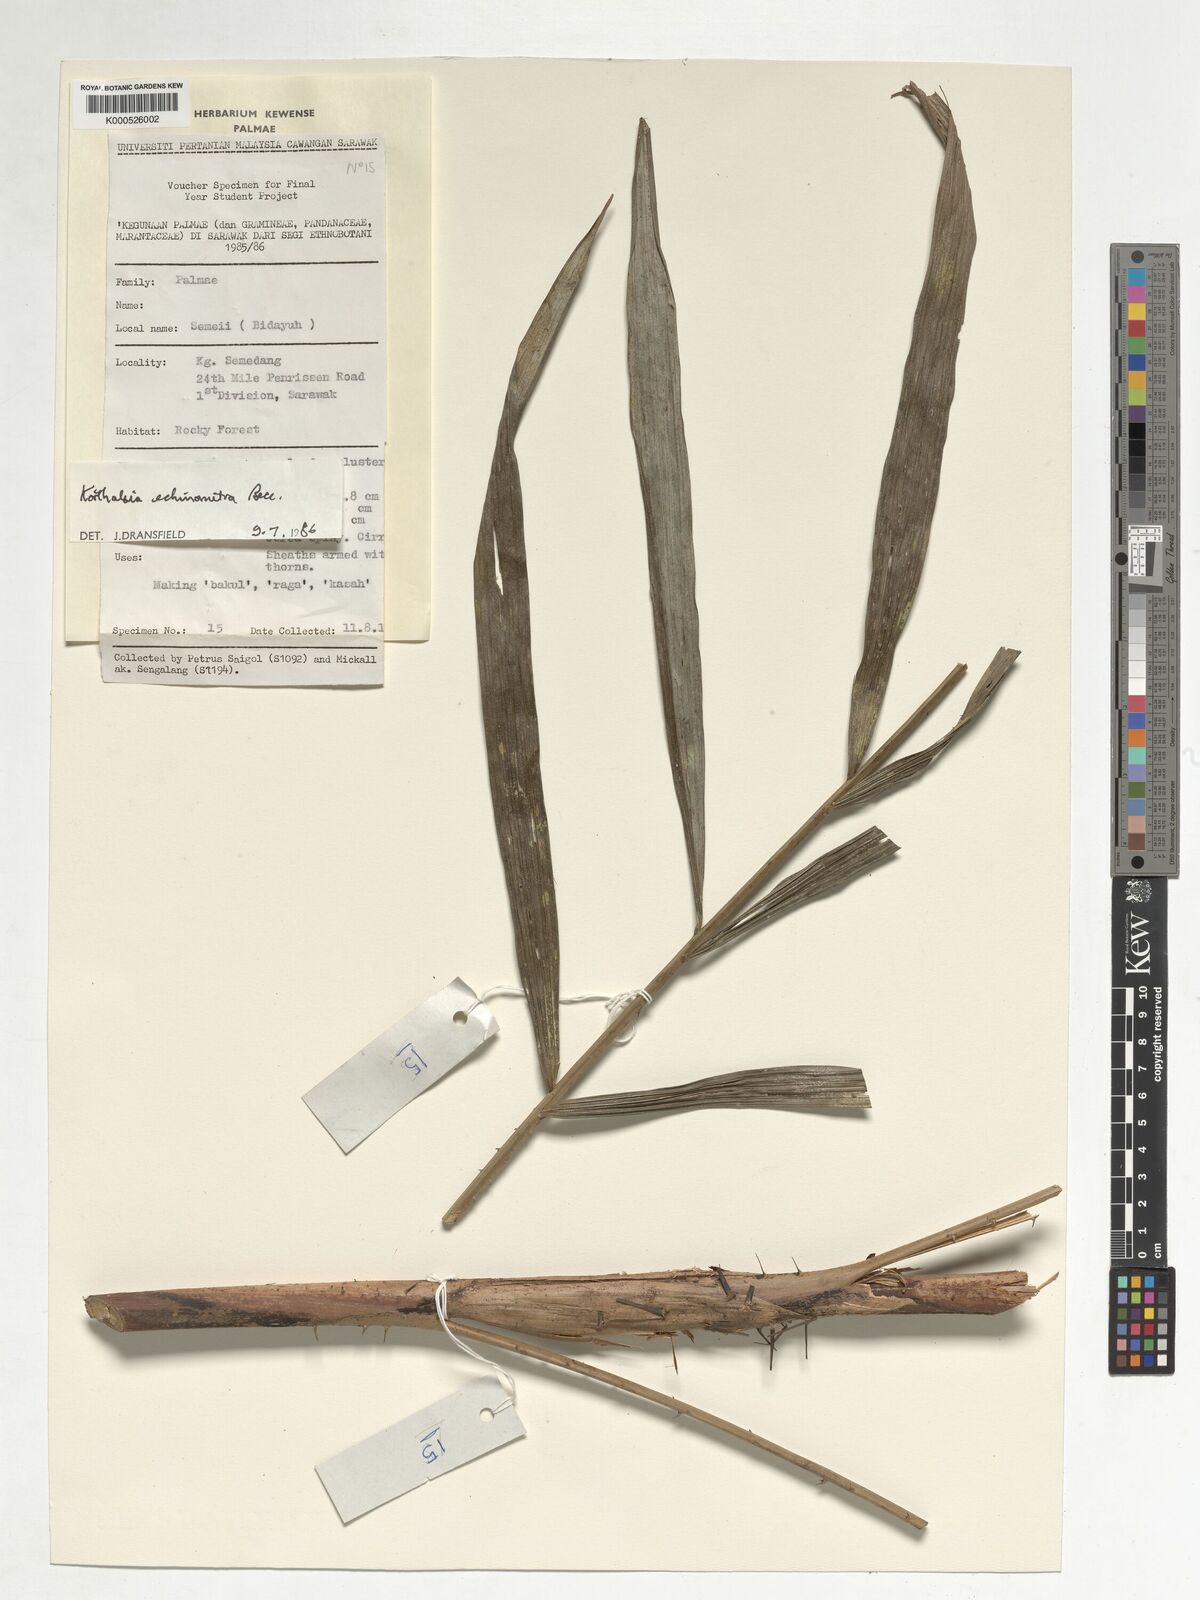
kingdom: Plantae
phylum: Tracheophyta
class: Liliopsida
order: Arecales
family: Arecaceae
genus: Korthalsia
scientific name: Korthalsia echinometra
